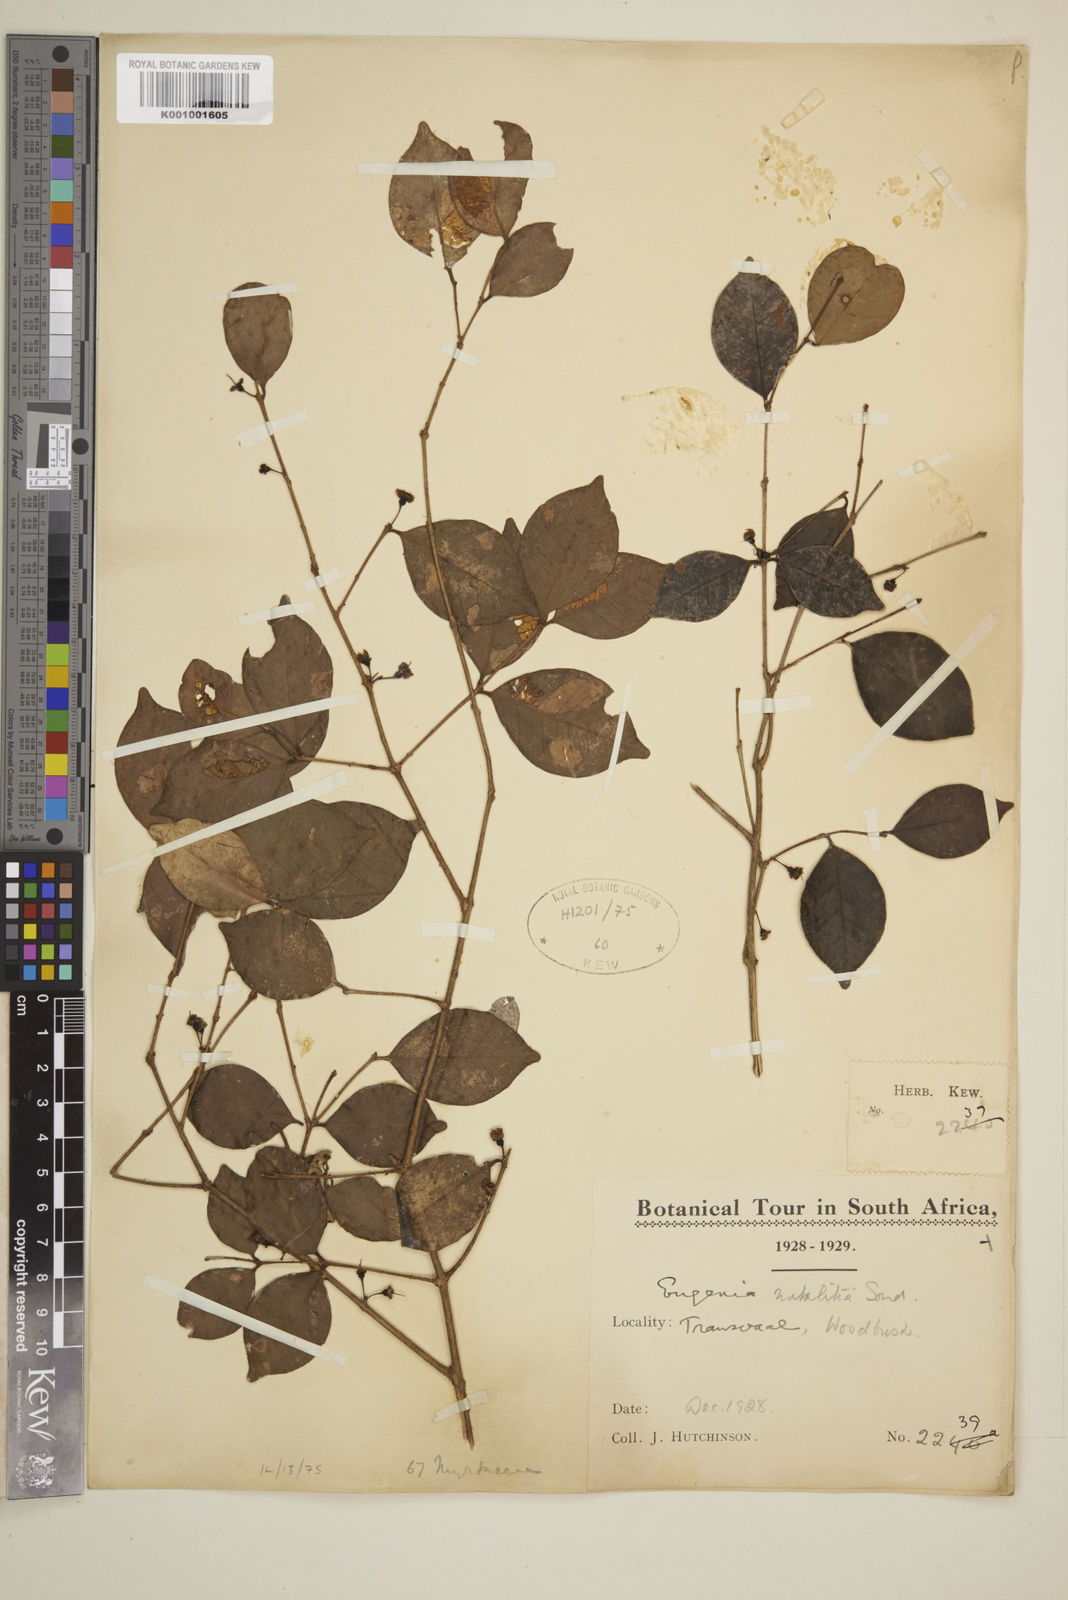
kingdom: Plantae
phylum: Tracheophyta
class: Magnoliopsida
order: Myrtales
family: Myrtaceae
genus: Eugenia
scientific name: Eugenia natalitia
